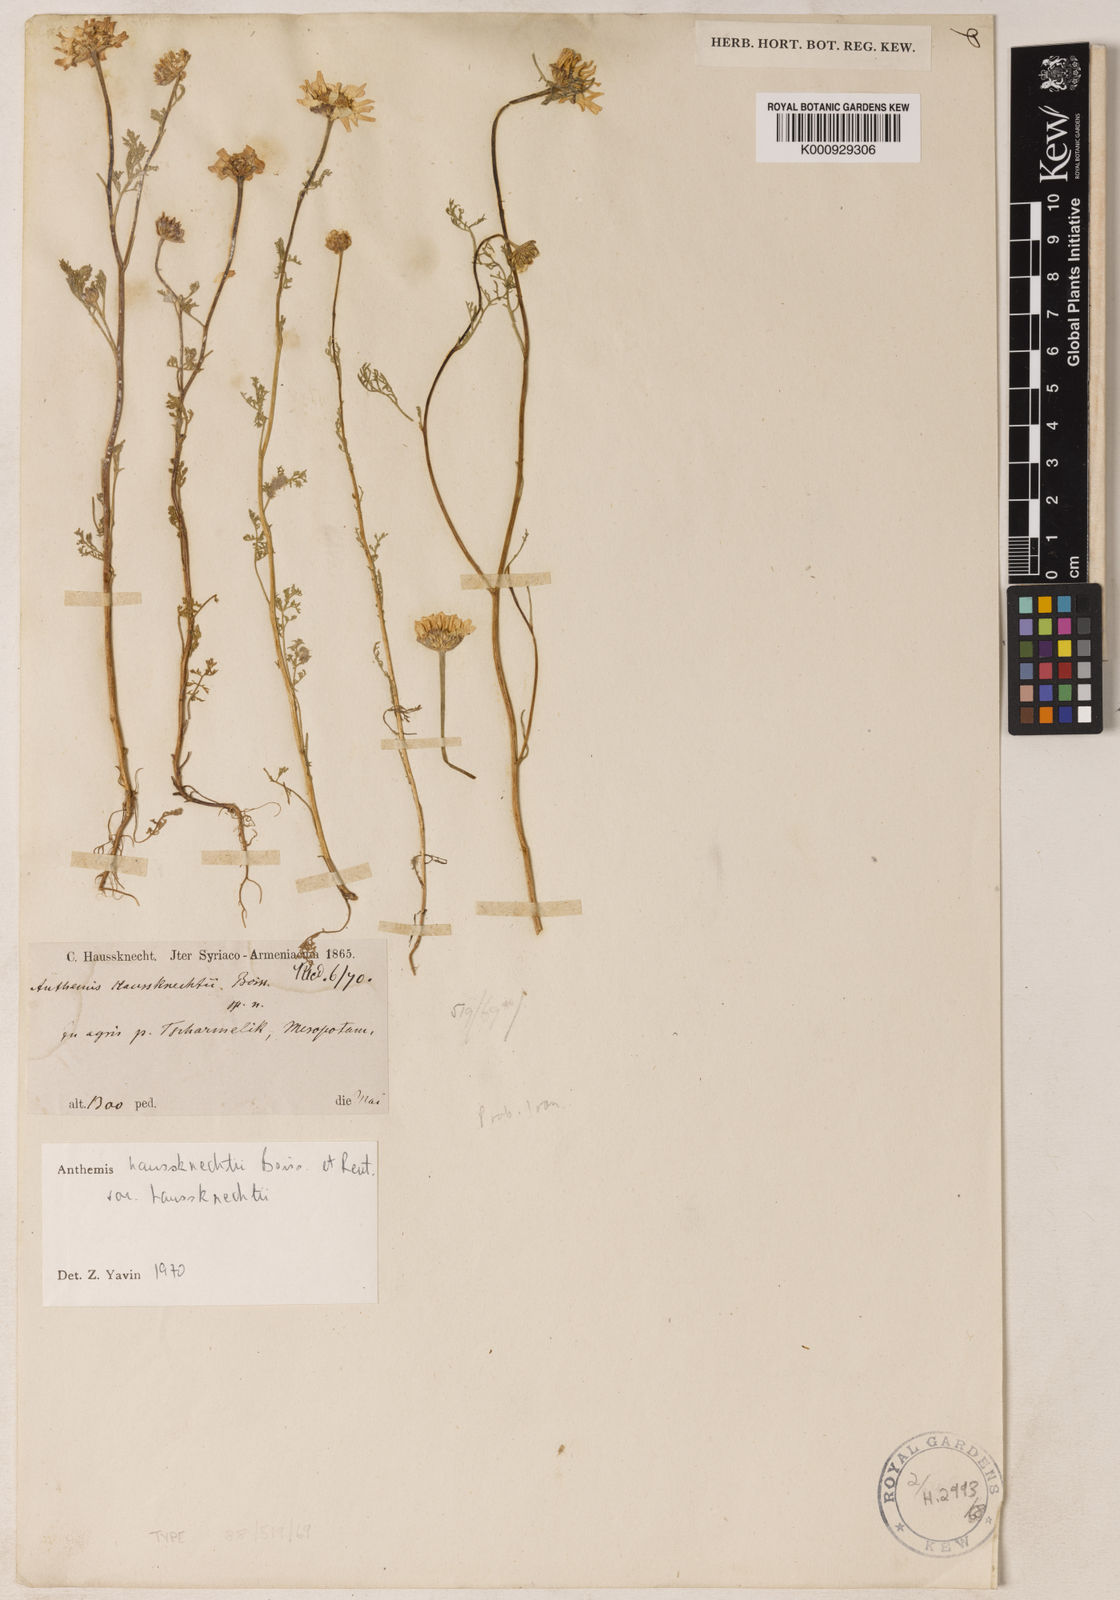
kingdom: Plantae
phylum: Tracheophyta
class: Magnoliopsida
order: Asterales
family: Asteraceae
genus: Anthemis
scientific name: Anthemis haussknechtii
